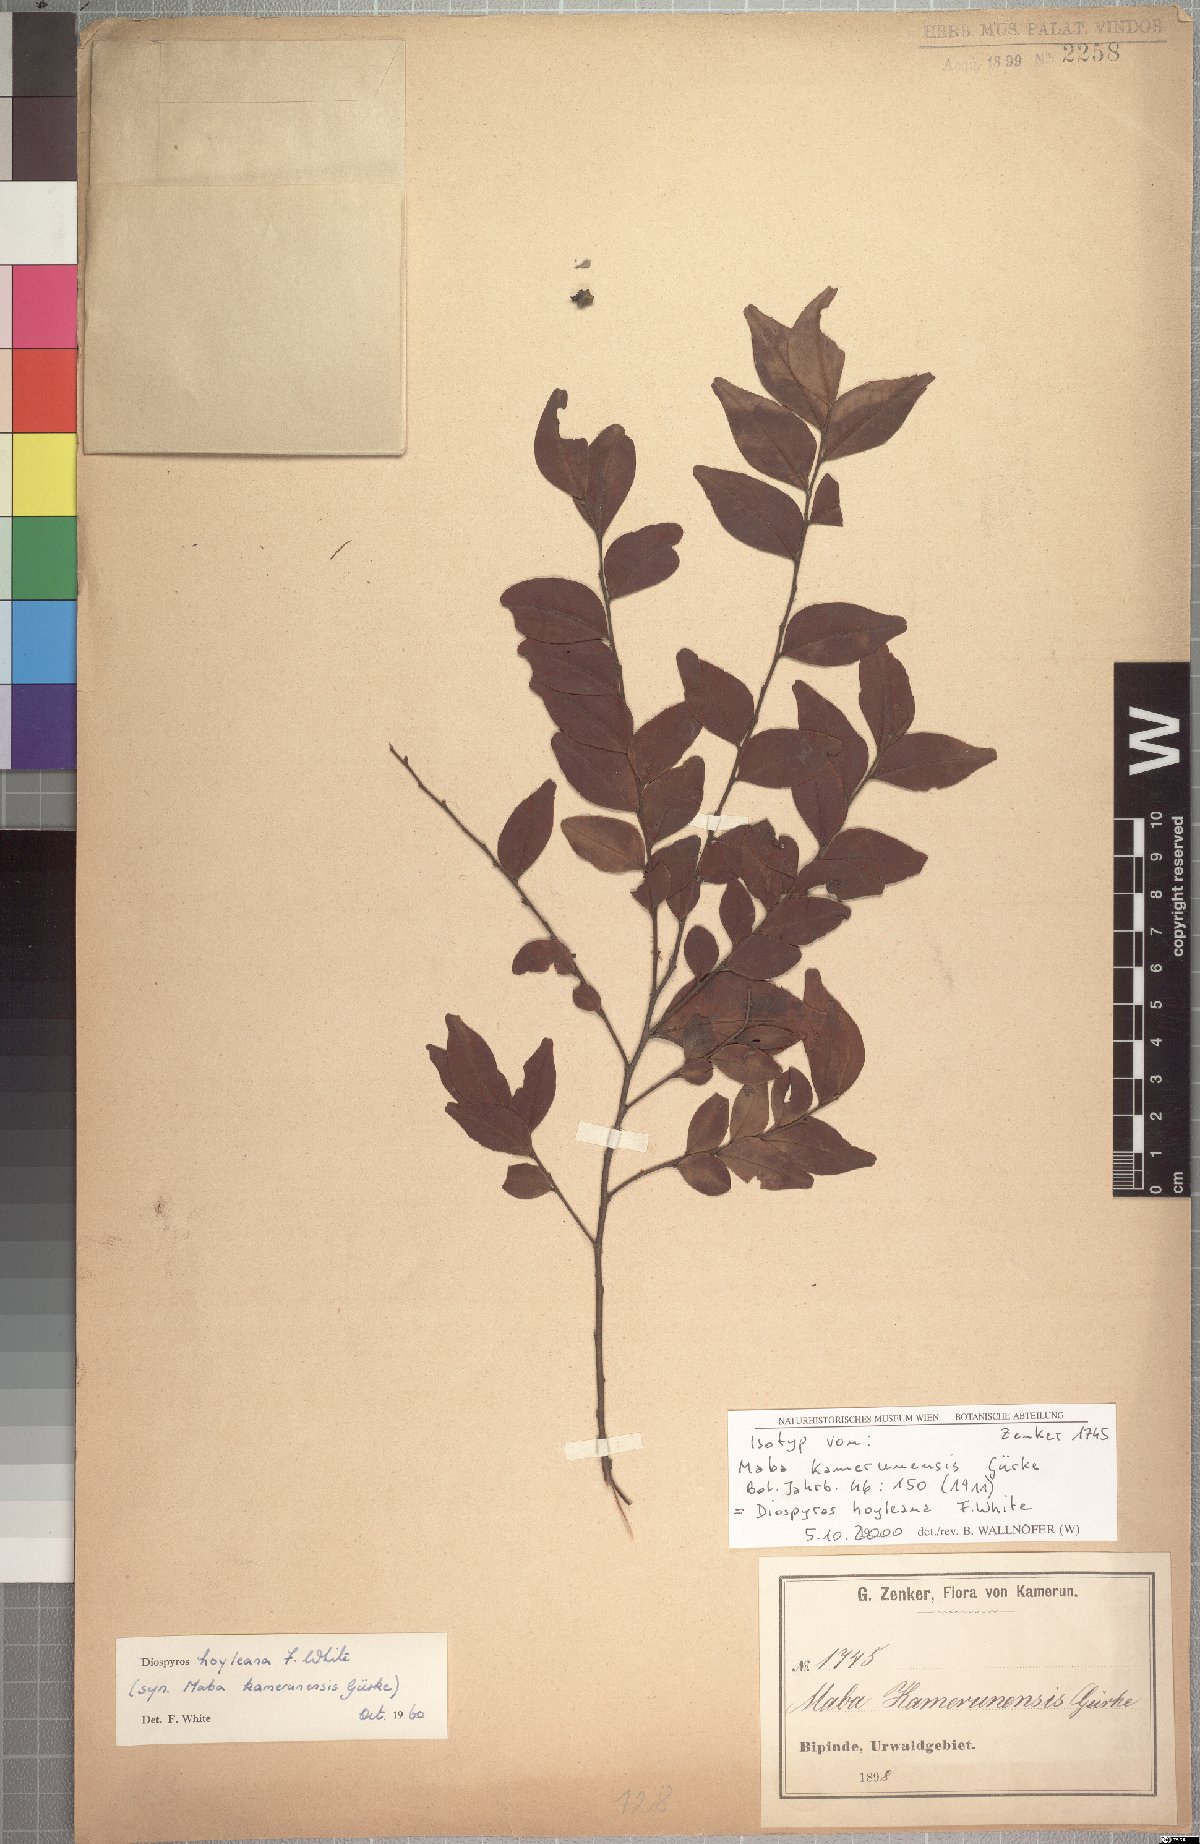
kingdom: Plantae
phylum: Tracheophyta
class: Magnoliopsida
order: Ericales
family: Ebenaceae
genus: Diospyros
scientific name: Diospyros hoyleana
